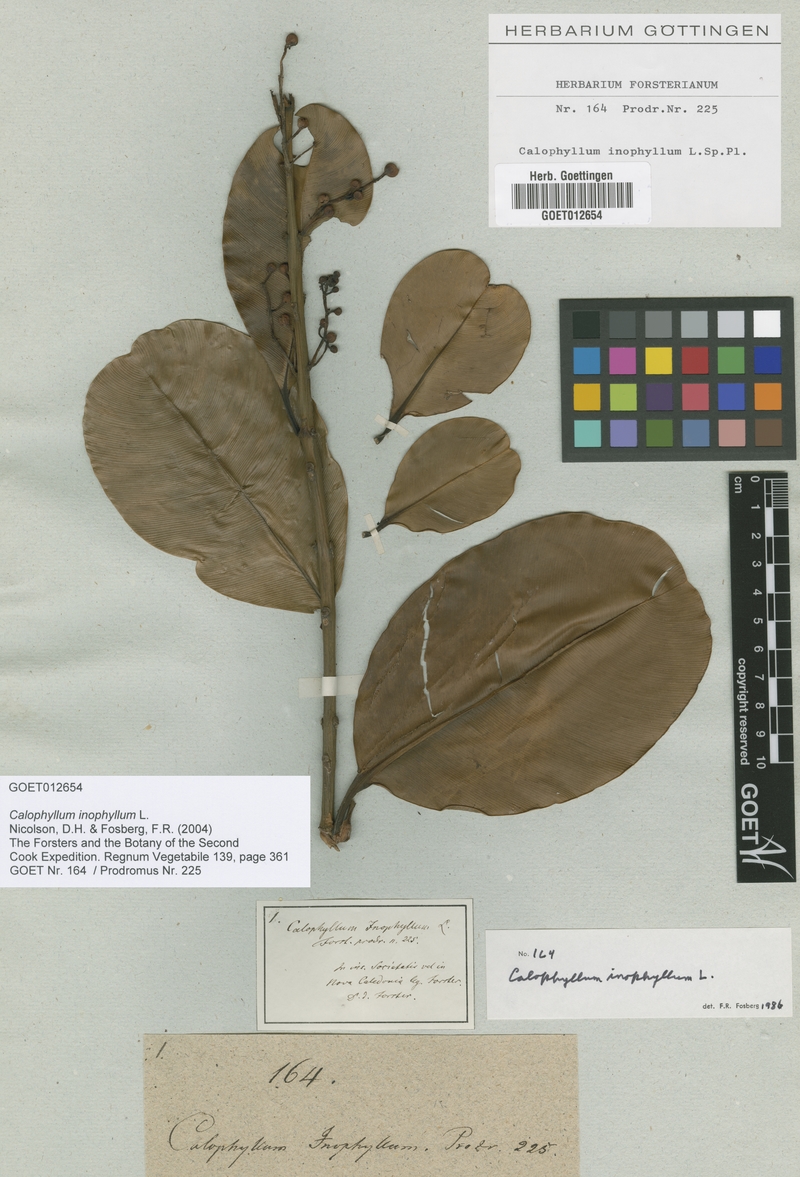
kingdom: Plantae
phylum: Tracheophyta
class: Magnoliopsida
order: Malpighiales
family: Calophyllaceae
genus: Calophyllum
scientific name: Calophyllum inophyllum
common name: Alexandrian laurel
